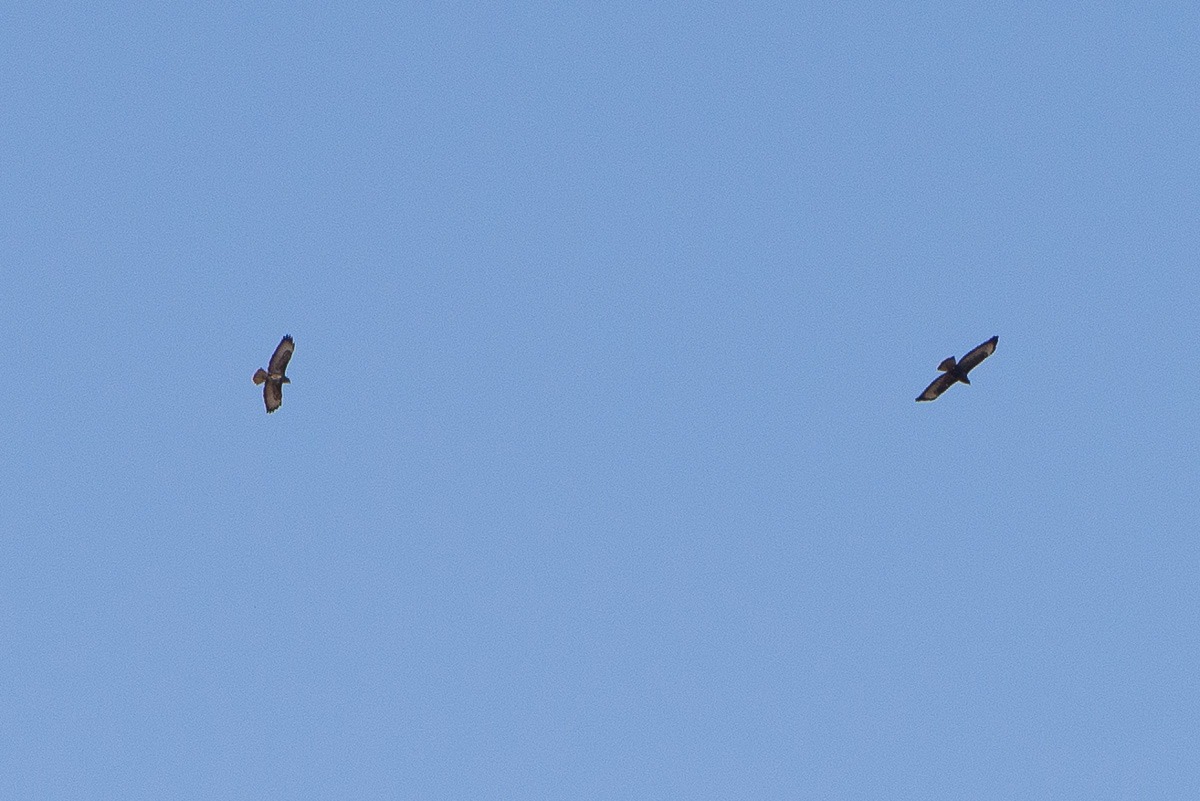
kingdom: Animalia
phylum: Chordata
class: Aves
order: Accipitriformes
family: Accipitridae
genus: Buteo
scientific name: Buteo buteo
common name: Musvåge
